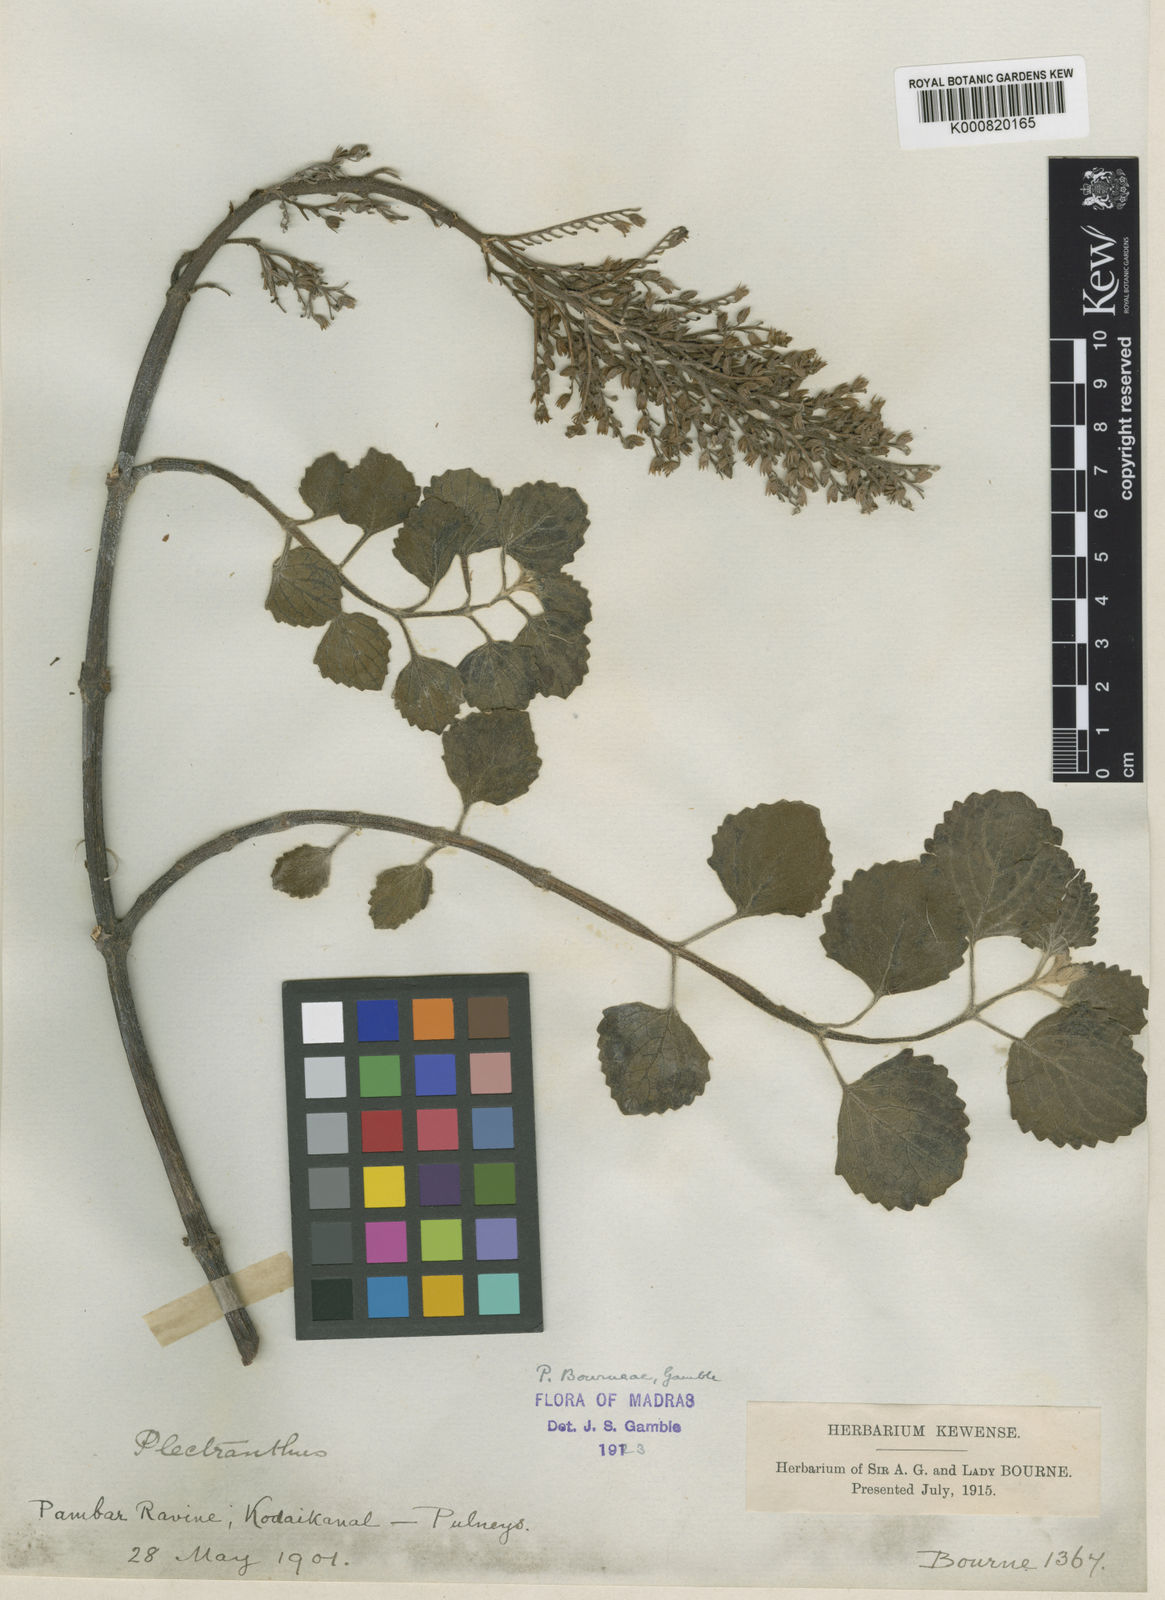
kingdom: Plantae
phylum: Tracheophyta
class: Magnoliopsida
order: Lamiales
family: Lamiaceae
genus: Coleus
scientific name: Coleus bourneae
